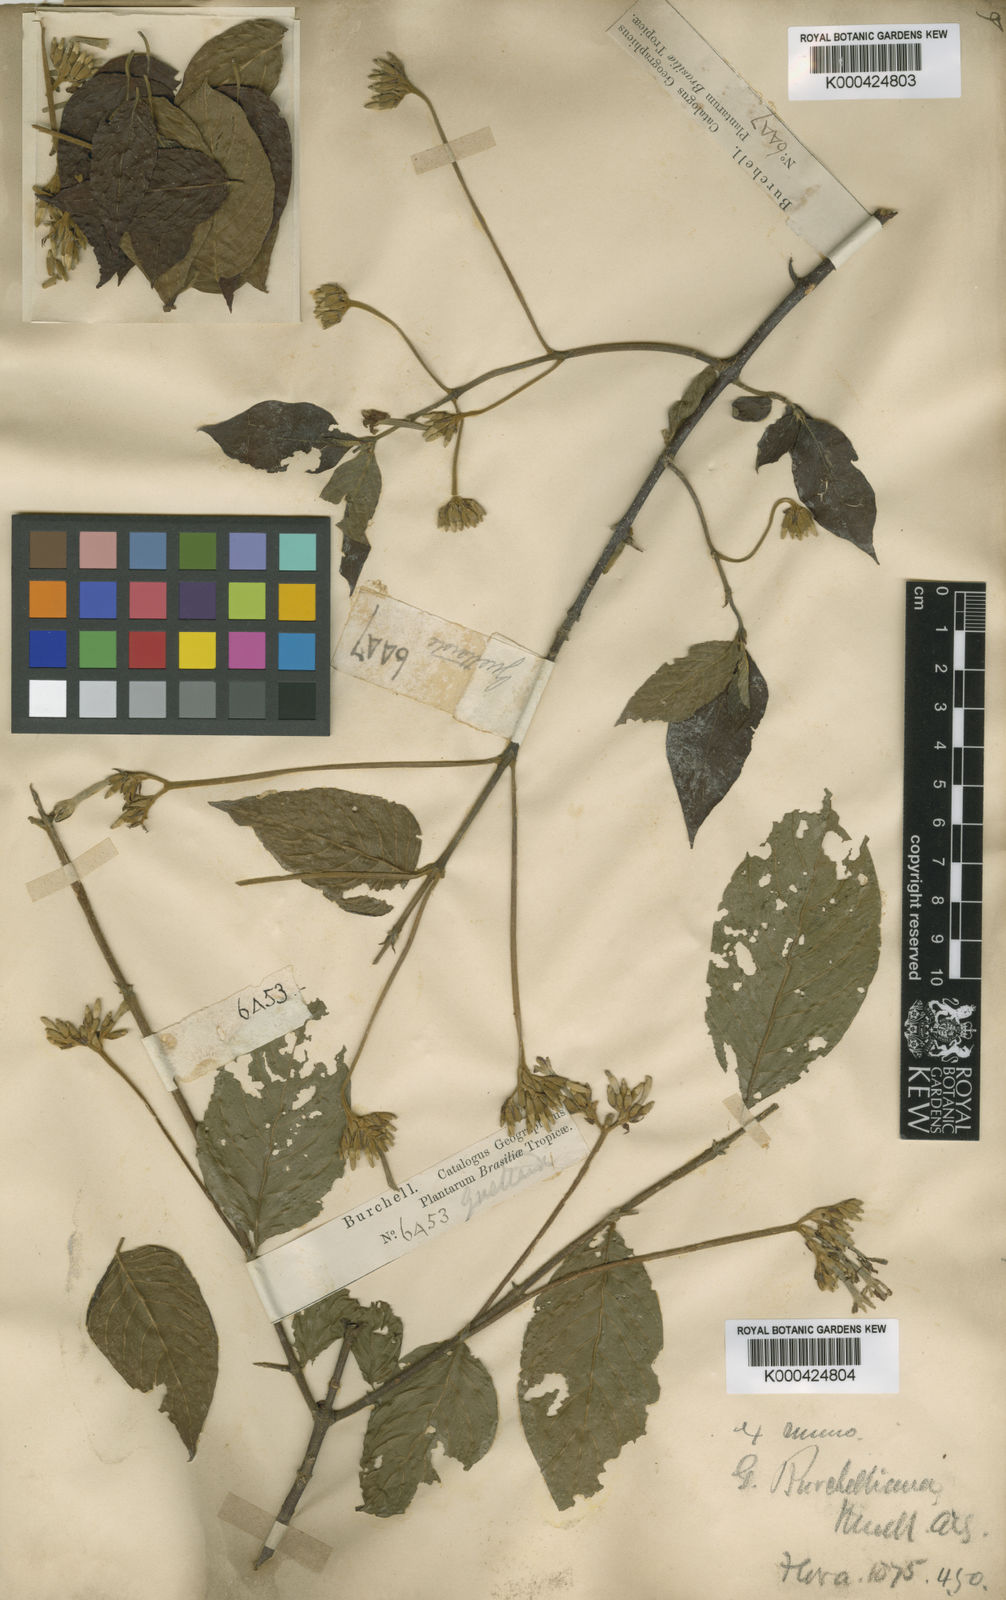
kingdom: Plantae
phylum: Tracheophyta
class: Magnoliopsida
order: Gentianales
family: Rubiaceae
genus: Guettarda
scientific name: Guettarda
